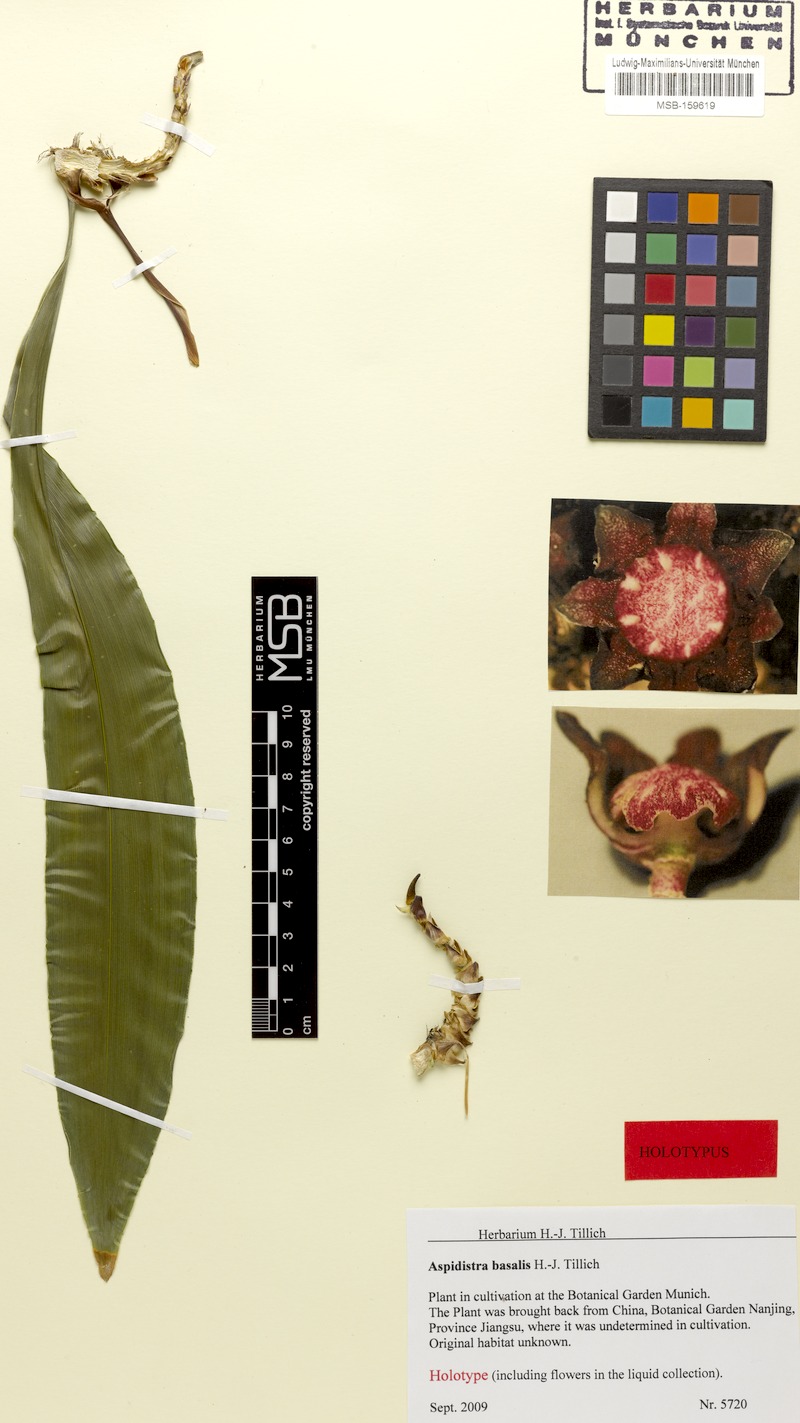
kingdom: Plantae
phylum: Tracheophyta
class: Liliopsida
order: Asparagales
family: Asparagaceae
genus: Aspidistra
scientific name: Aspidistra basalis
